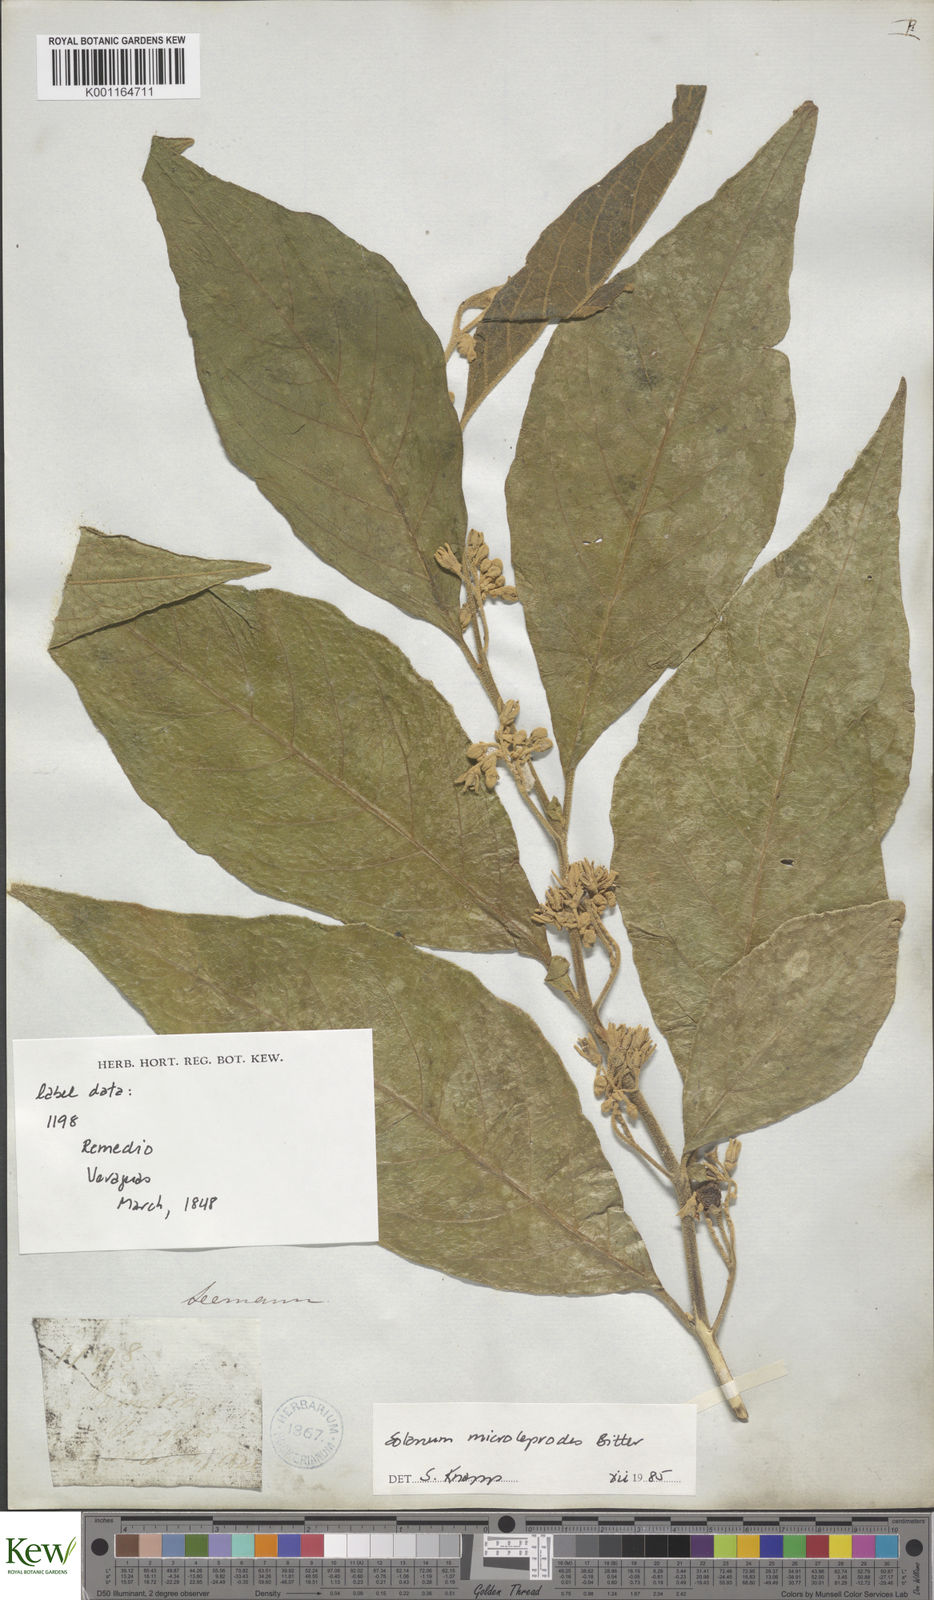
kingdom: Plantae
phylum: Tracheophyta
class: Magnoliopsida
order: Solanales
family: Solanaceae
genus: Solanum
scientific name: Solanum microleprodes
